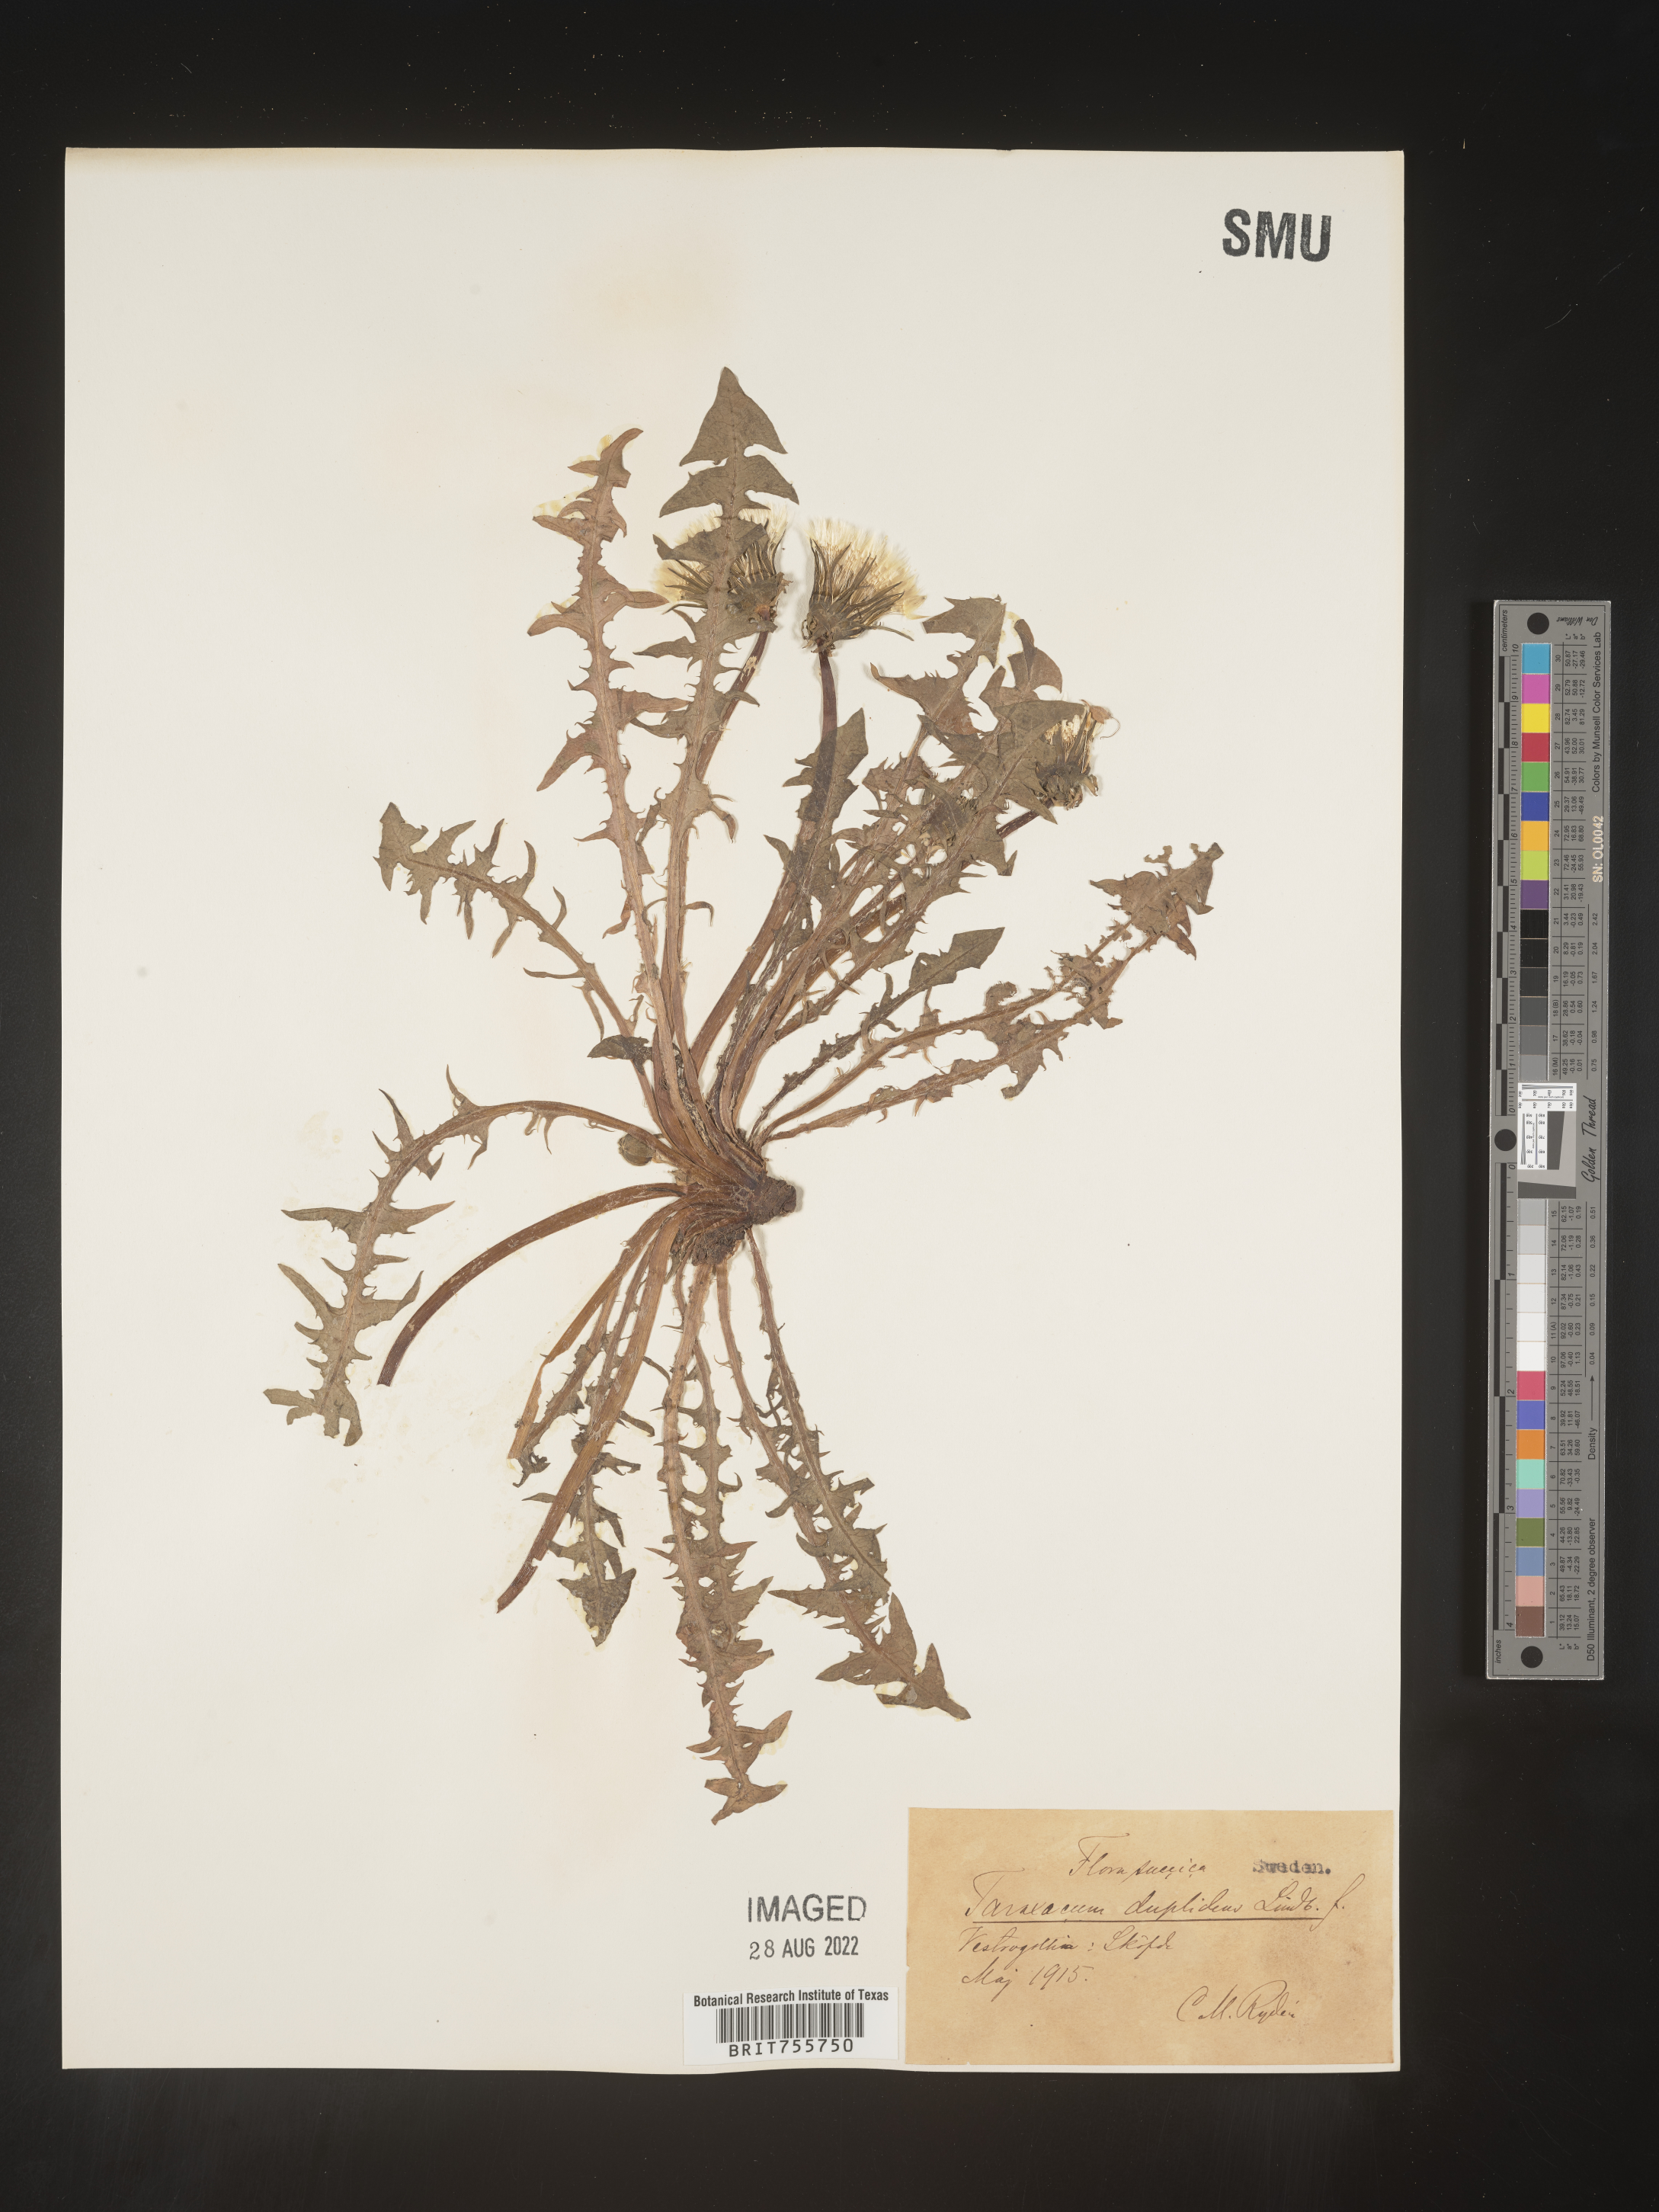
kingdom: Plantae
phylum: Tracheophyta
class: Magnoliopsida
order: Asterales
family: Asteraceae
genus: Taraxacum
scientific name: Taraxacum
